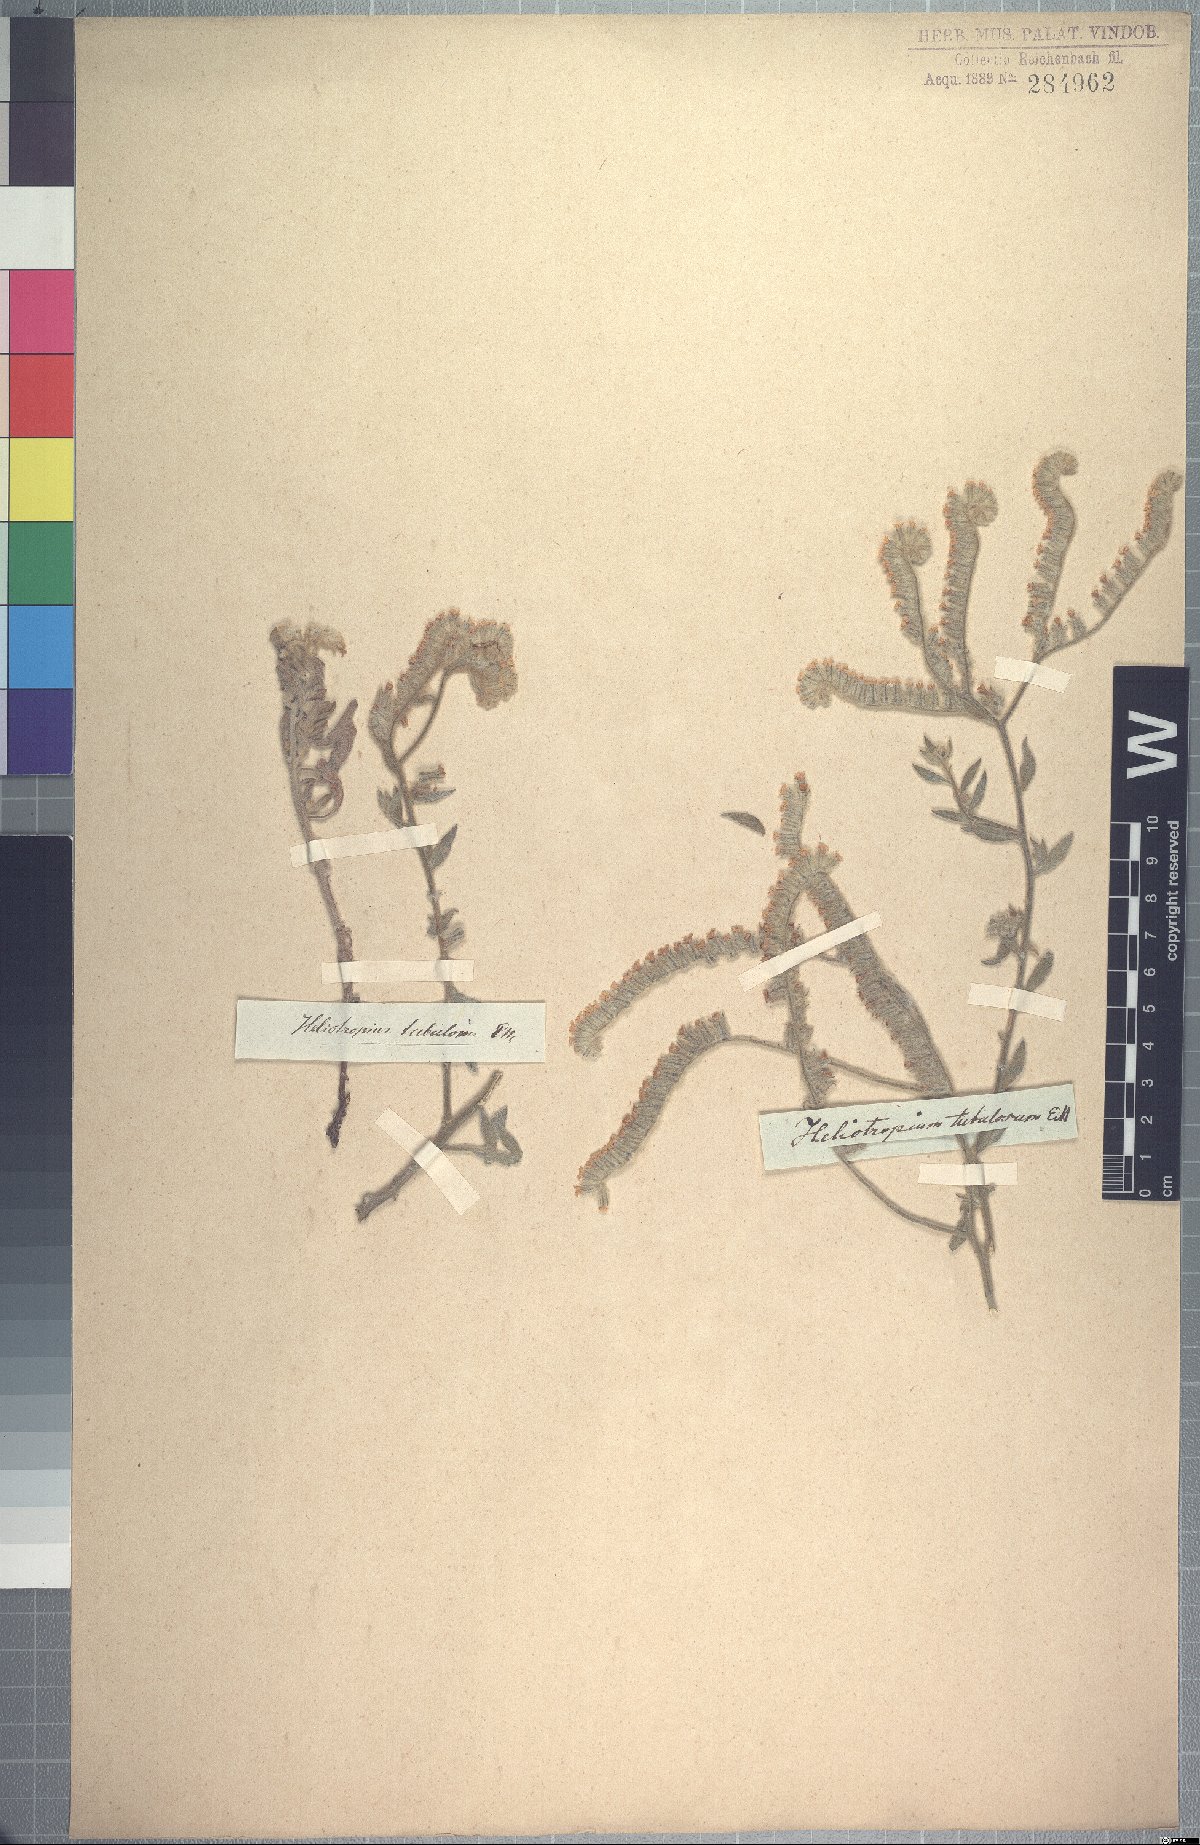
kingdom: Plantae
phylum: Tracheophyta
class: Magnoliopsida
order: Boraginales
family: Heliotropiaceae
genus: Heliotropium
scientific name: Heliotropium tubulosum
